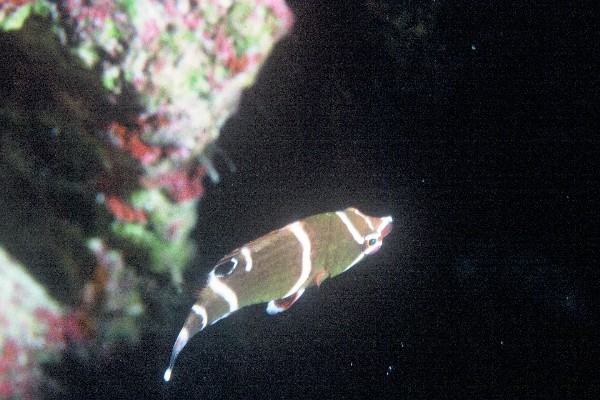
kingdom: Animalia
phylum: Chordata
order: Perciformes
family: Labridae
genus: Wetmorella
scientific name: Wetmorella albofasciata
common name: Whitebanded sharpnose wrasse
